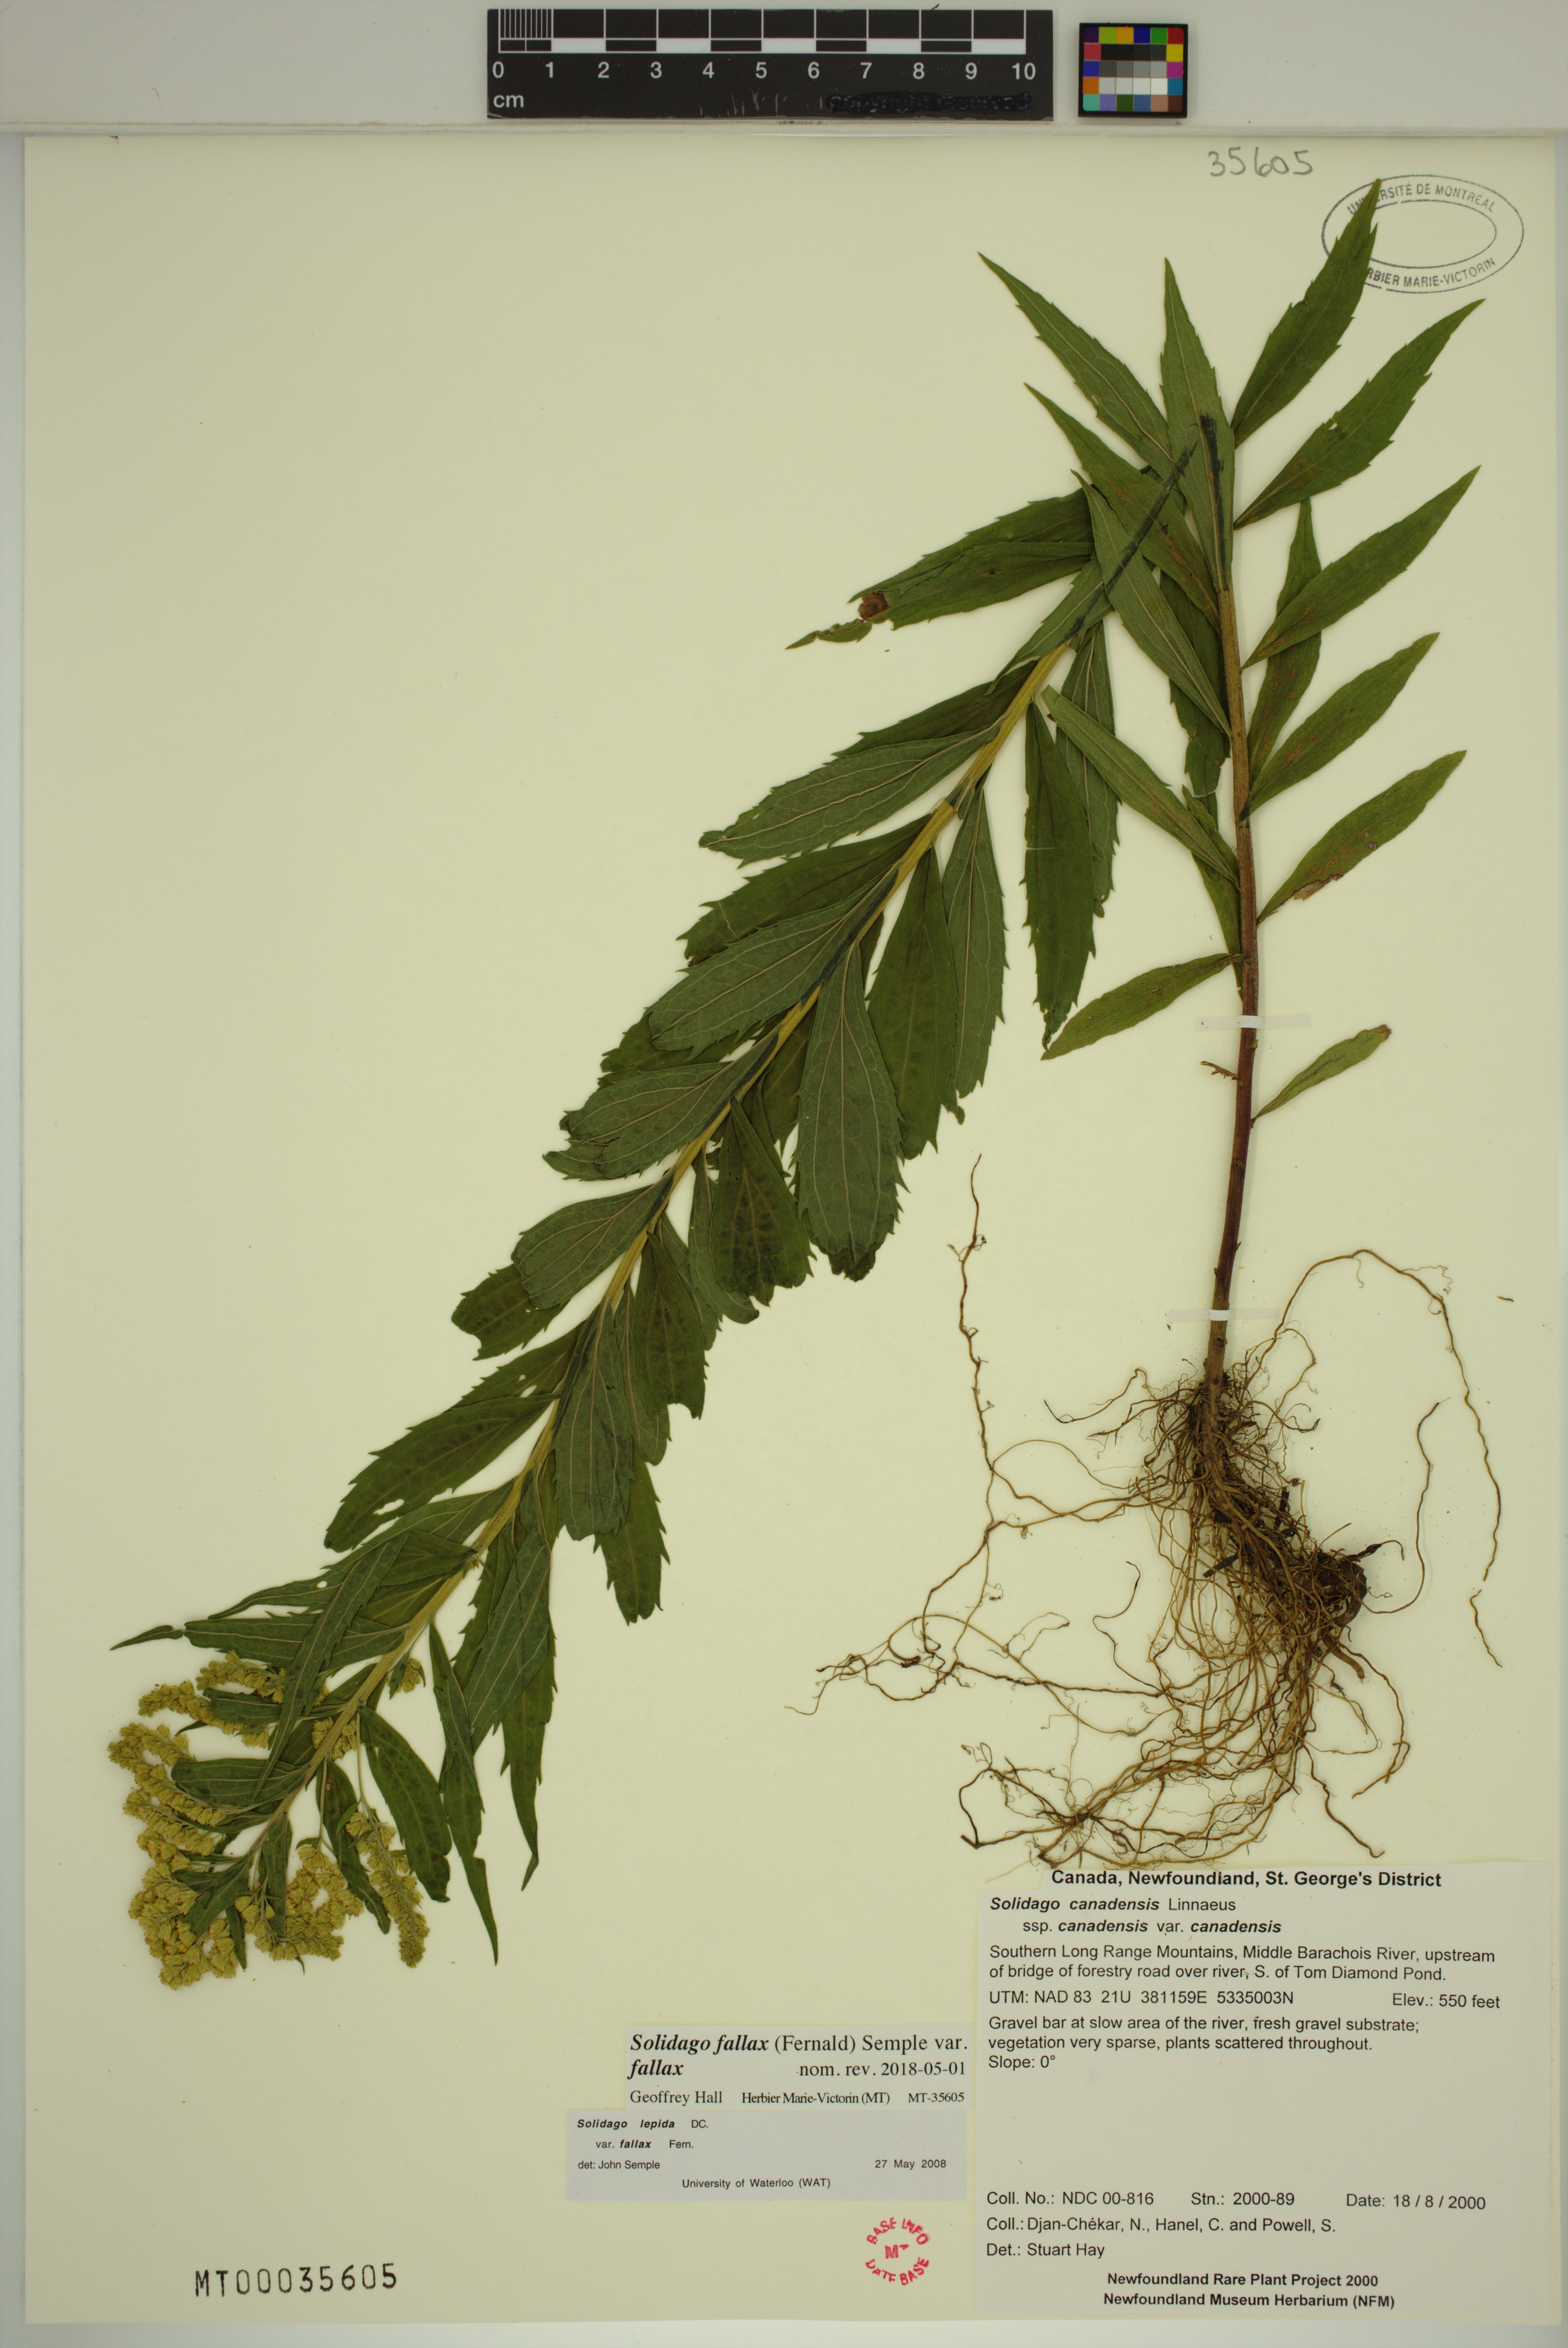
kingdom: Plantae
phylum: Tracheophyta
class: Magnoliopsida
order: Asterales
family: Asteraceae
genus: Solidago
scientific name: Solidago fallax
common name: Big-toothed canada goldenrod
